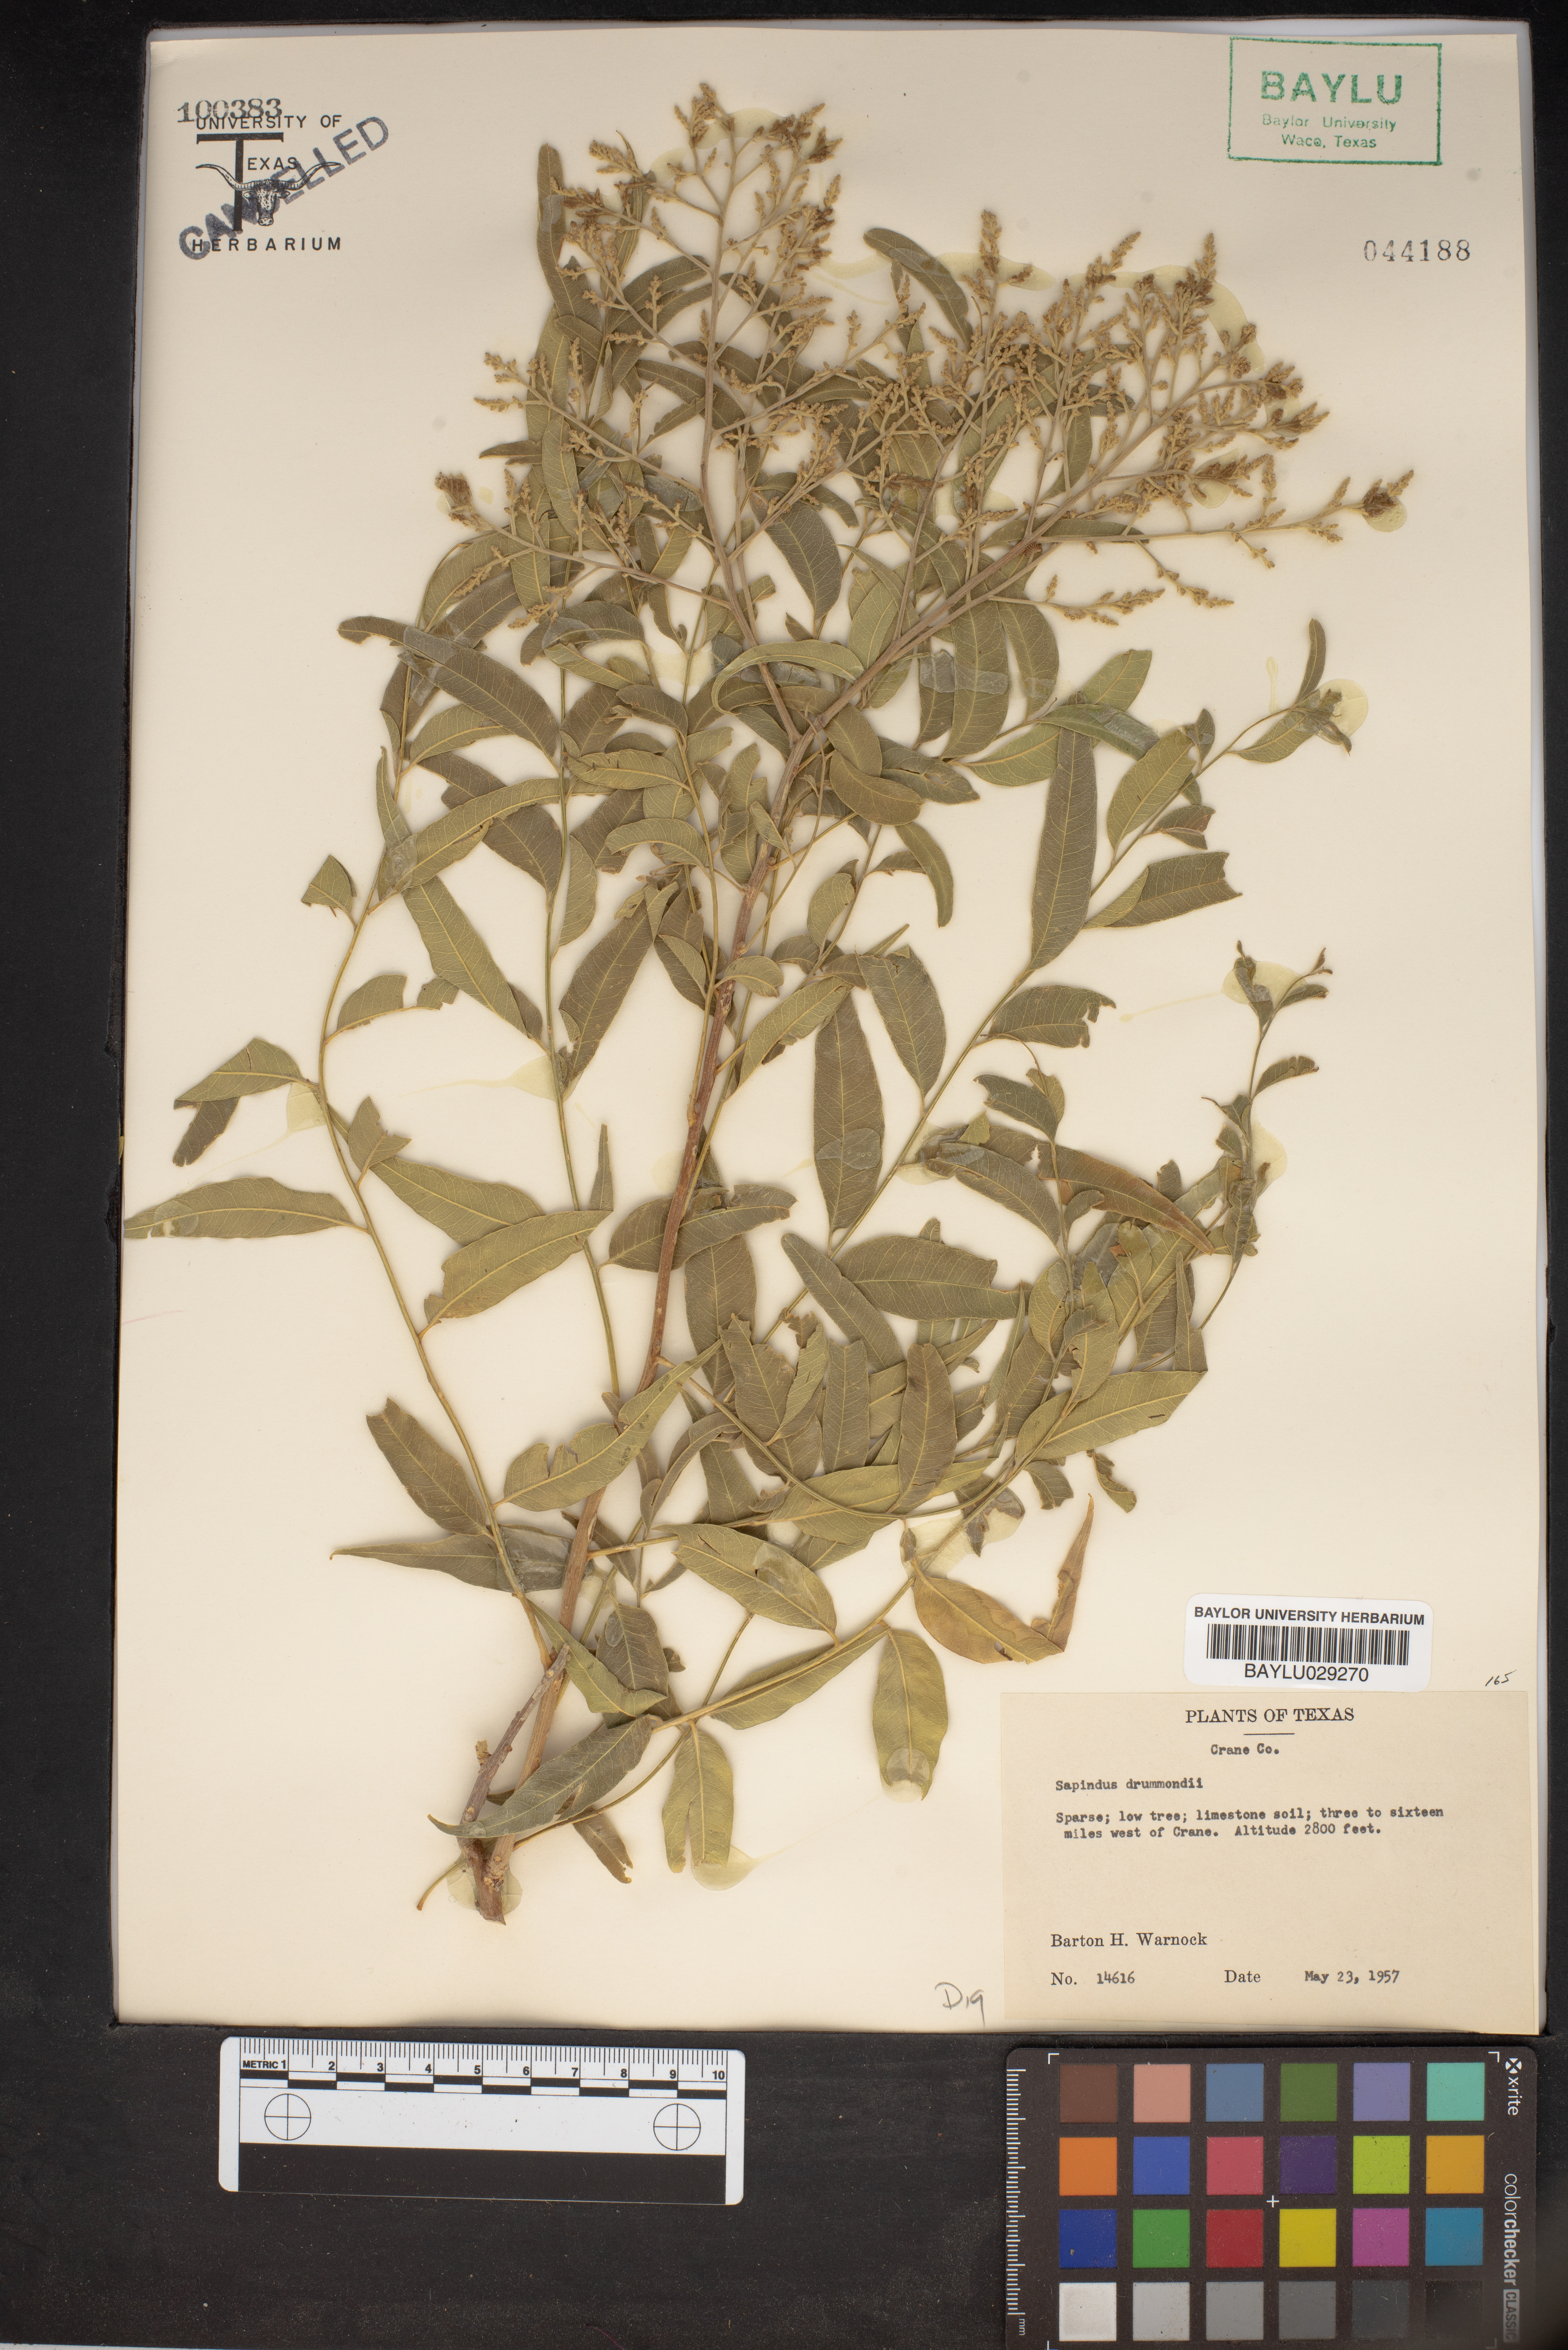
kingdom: Plantae
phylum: Tracheophyta
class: Magnoliopsida
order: Sapindales
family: Sapindaceae
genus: Sapindus
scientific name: Sapindus drummondii
